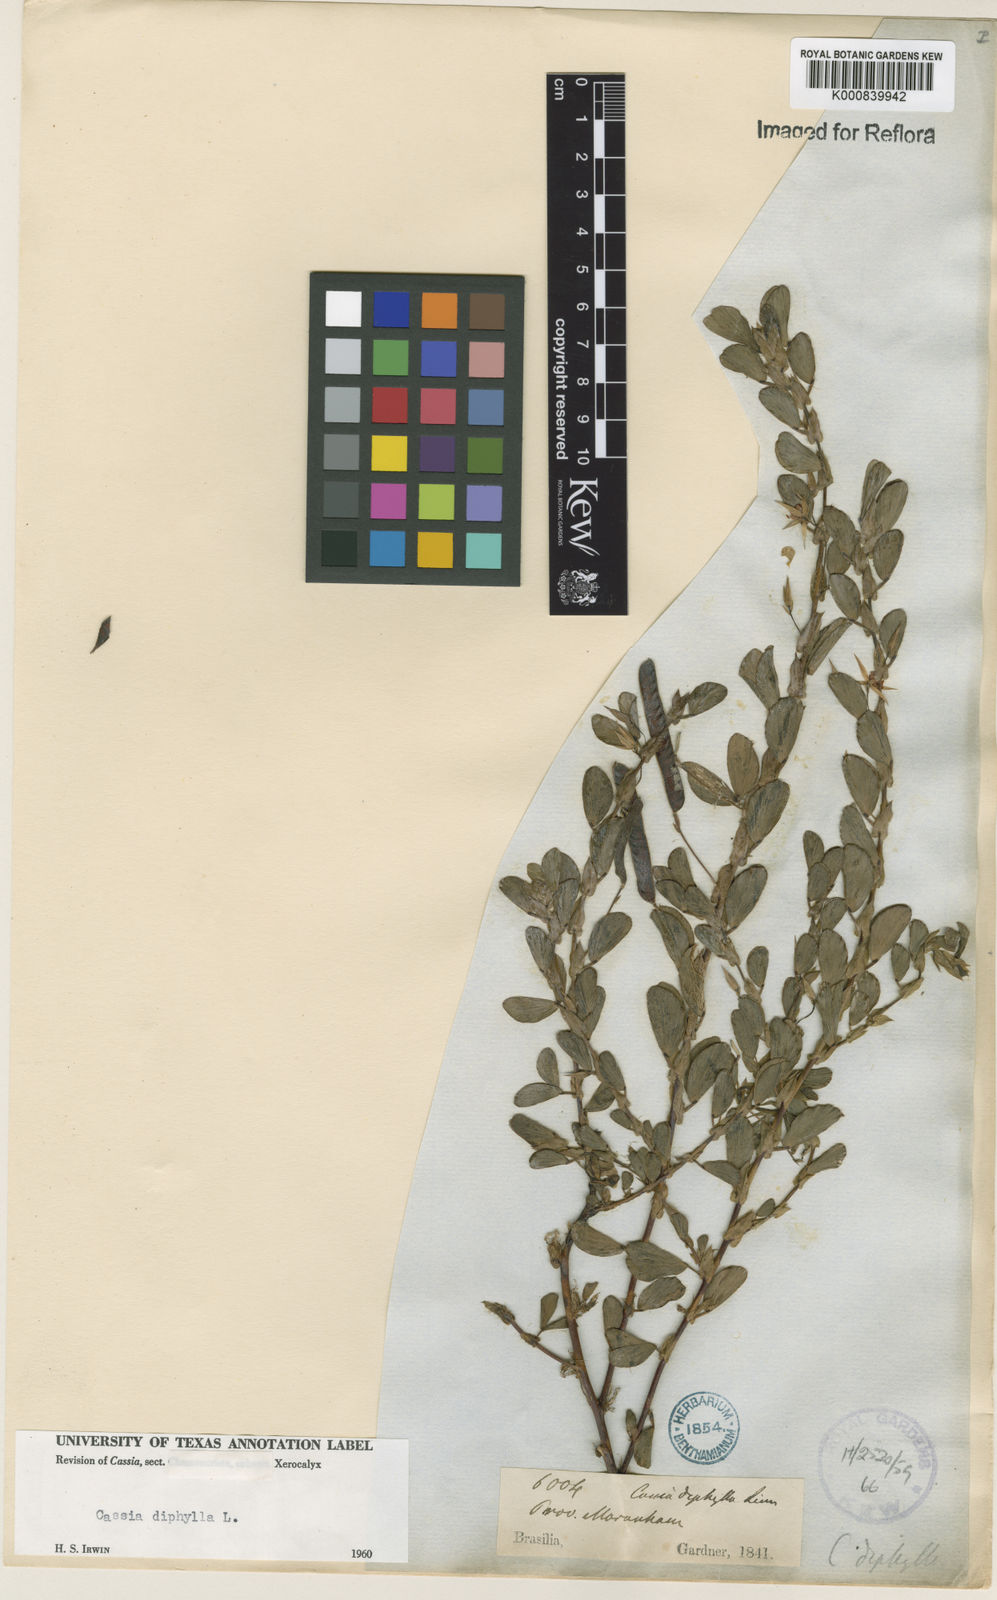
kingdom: Plantae
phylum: Tracheophyta
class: Magnoliopsida
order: Fabales
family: Fabaceae
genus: Chamaecrista
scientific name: Chamaecrista diphylla
